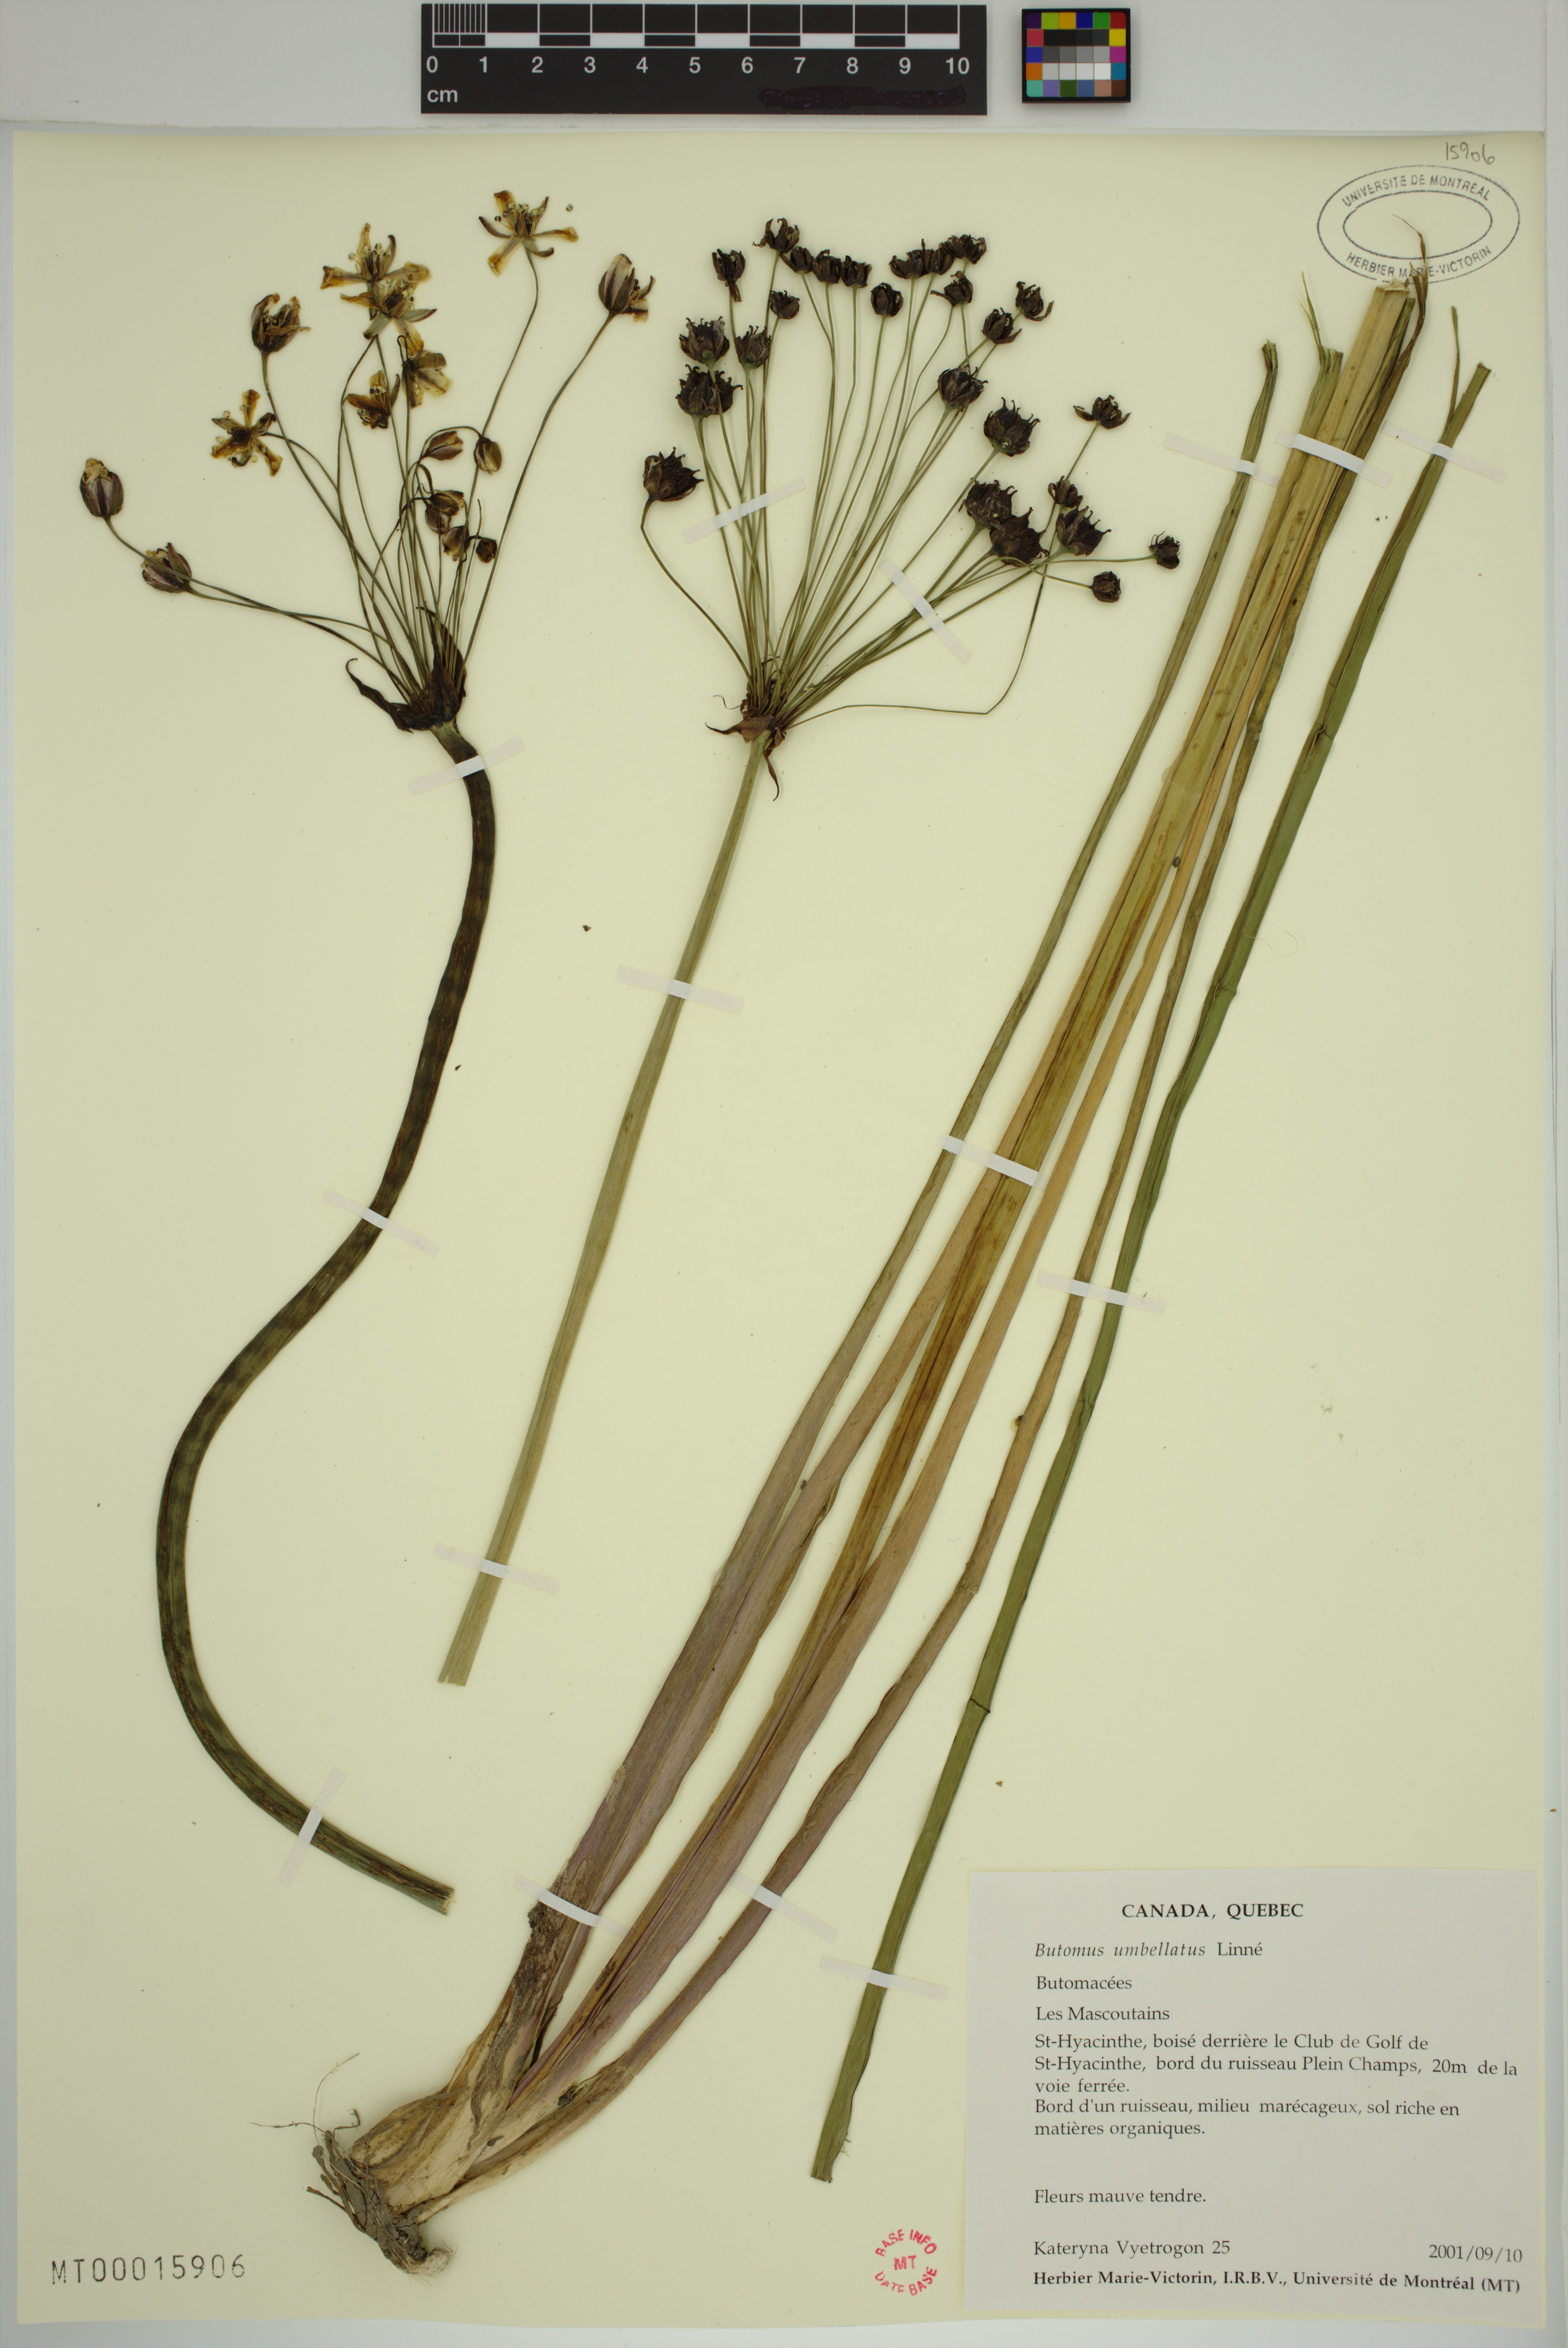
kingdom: Plantae
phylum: Tracheophyta
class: Liliopsida
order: Alismatales
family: Butomaceae
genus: Butomus
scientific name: Butomus umbellatus
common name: Flowering-rush
